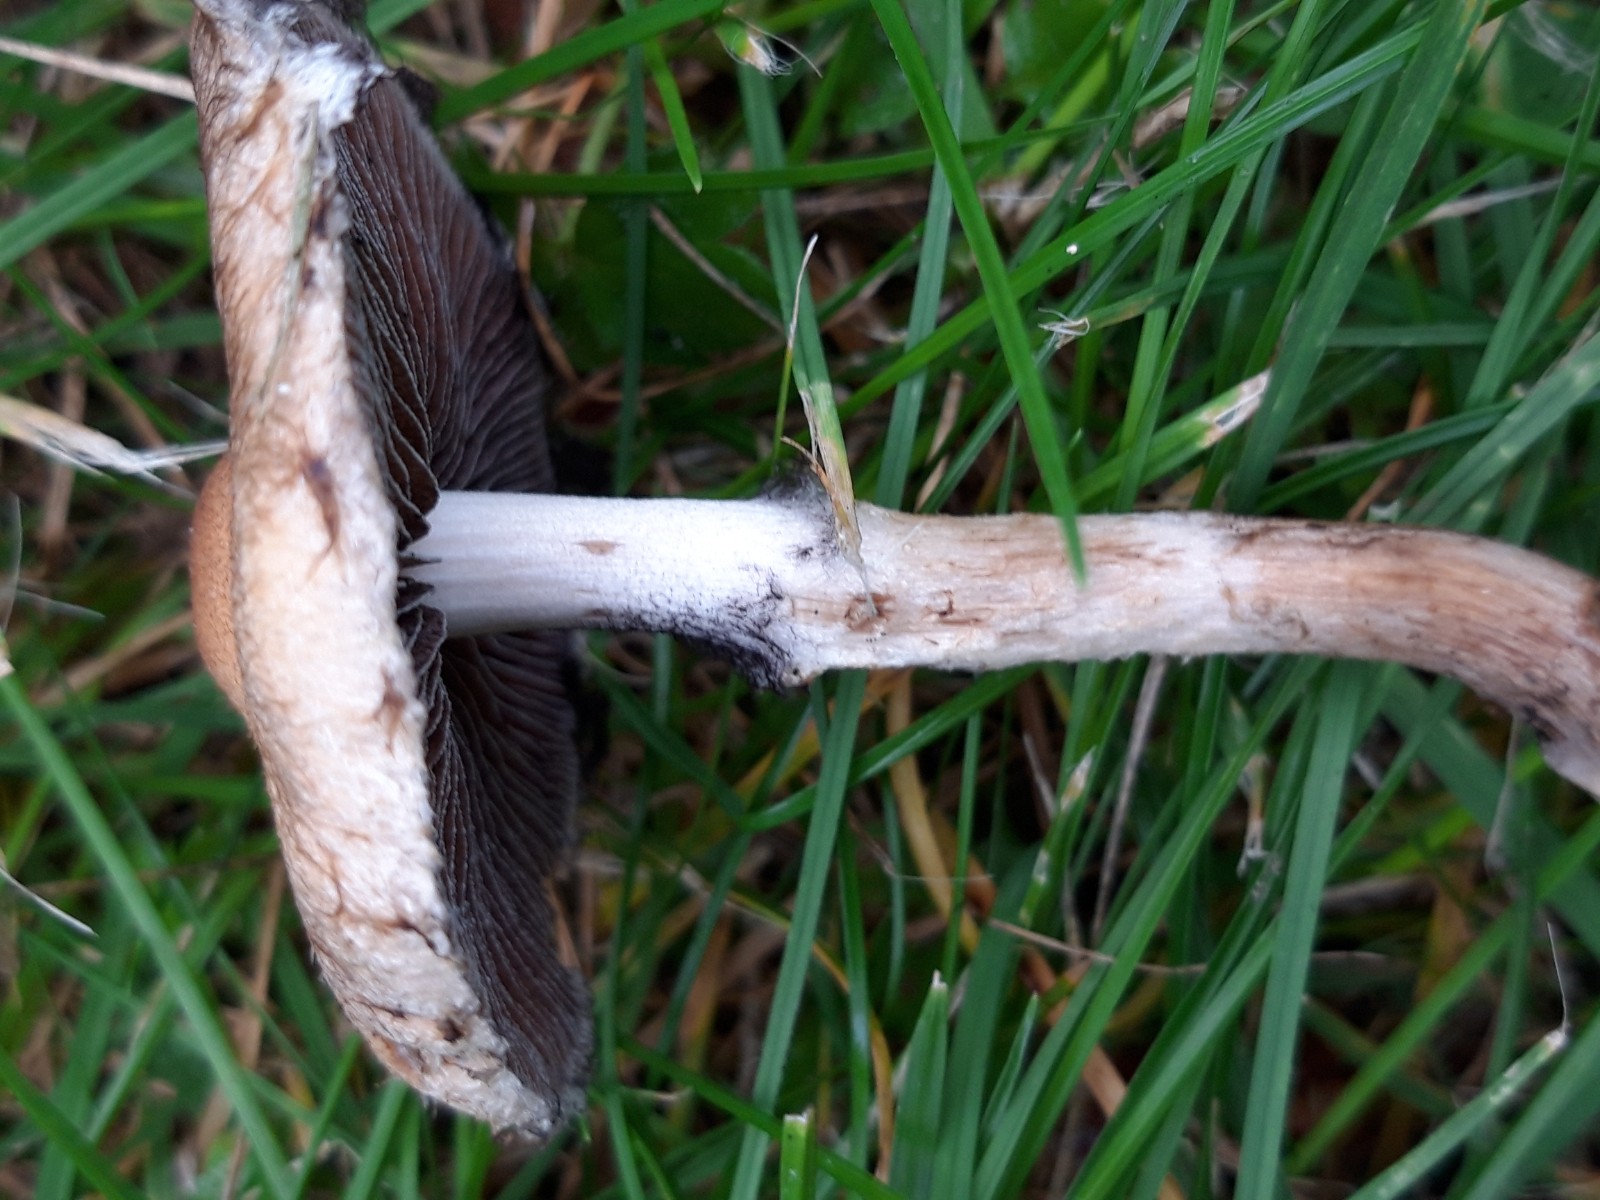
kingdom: Fungi
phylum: Basidiomycota
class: Agaricomycetes
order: Agaricales
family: Psathyrellaceae
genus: Lacrymaria
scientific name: Lacrymaria lacrymabunda
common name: grædende mørkhat
